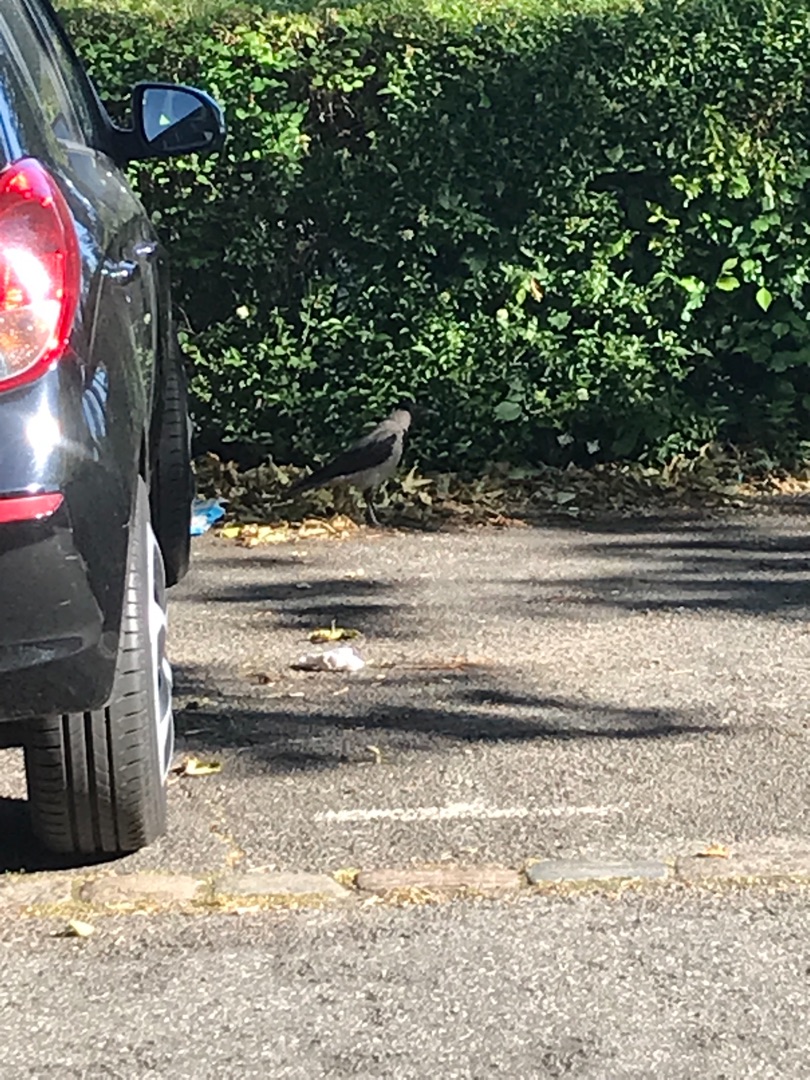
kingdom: Animalia
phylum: Chordata
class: Aves
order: Passeriformes
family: Corvidae
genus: Corvus
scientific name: Corvus cornix
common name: Gråkrage
